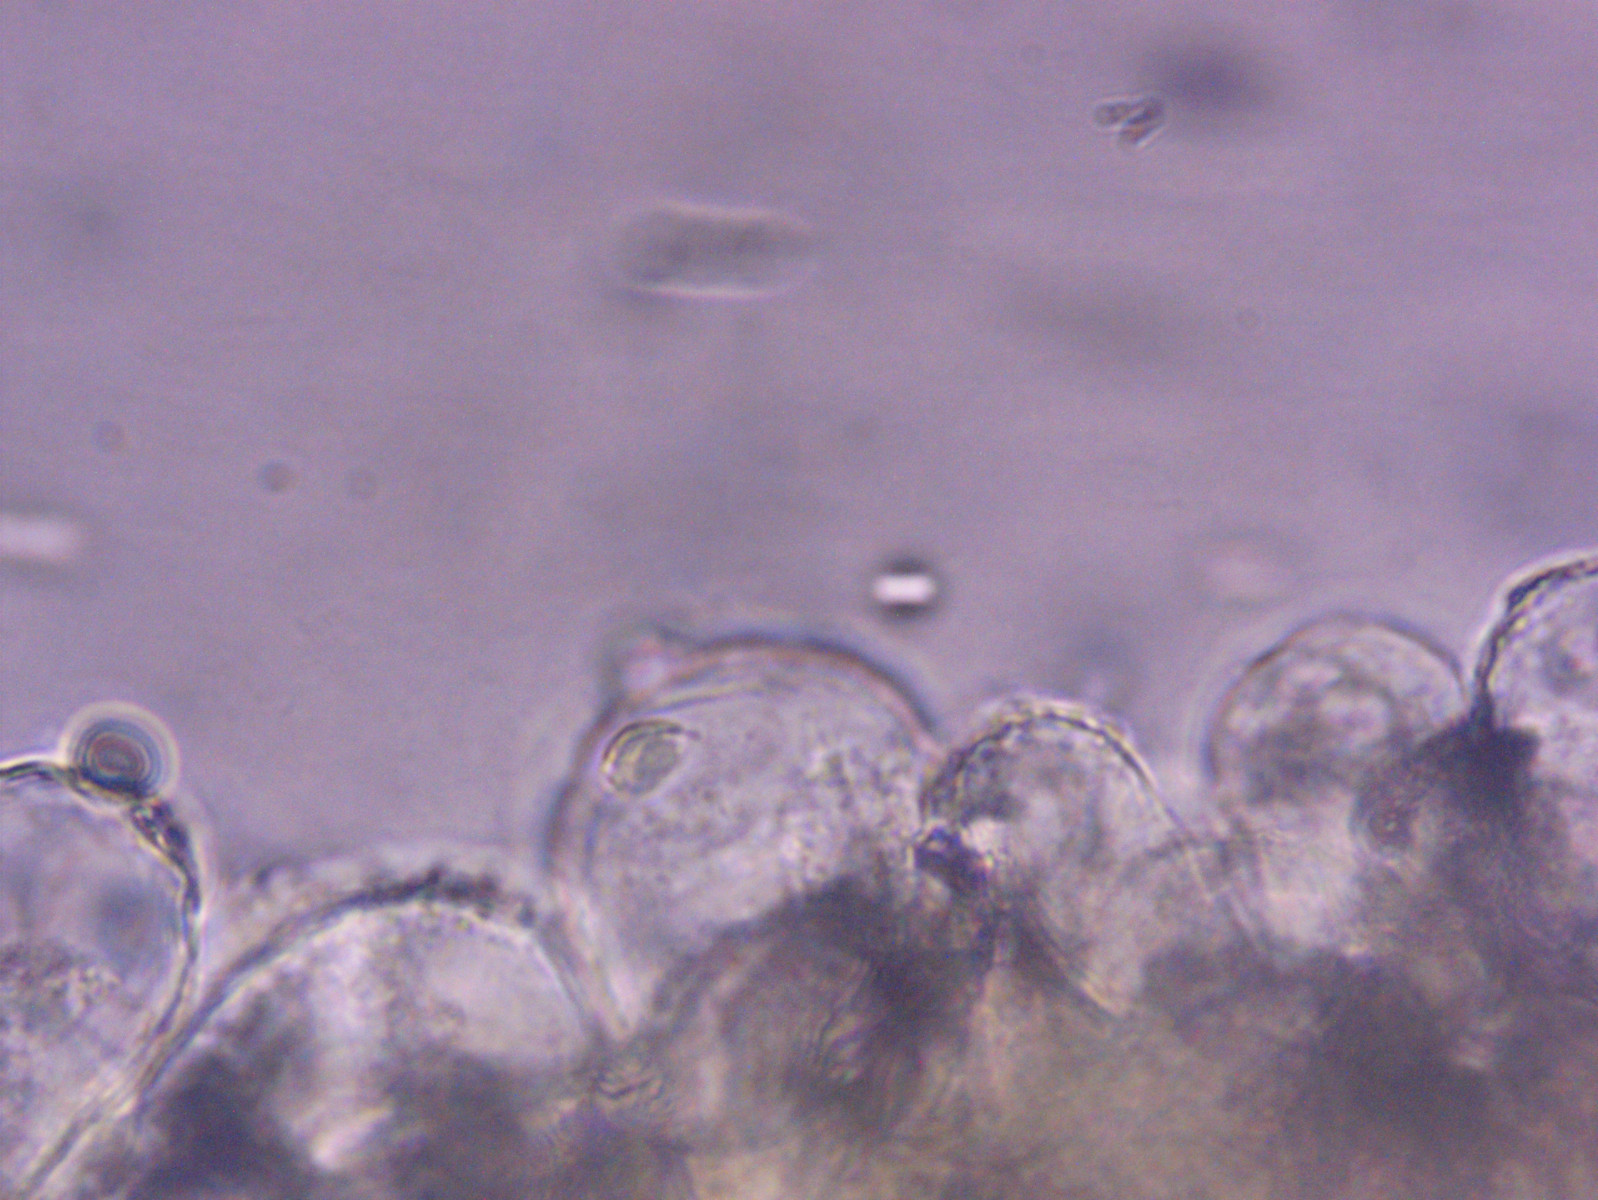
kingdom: Fungi
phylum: Basidiomycota
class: Agaricomycetes
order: Agaricales
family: Mycenaceae
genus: Mycena
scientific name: Mycena chlorantha
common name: klit-huesvamp
